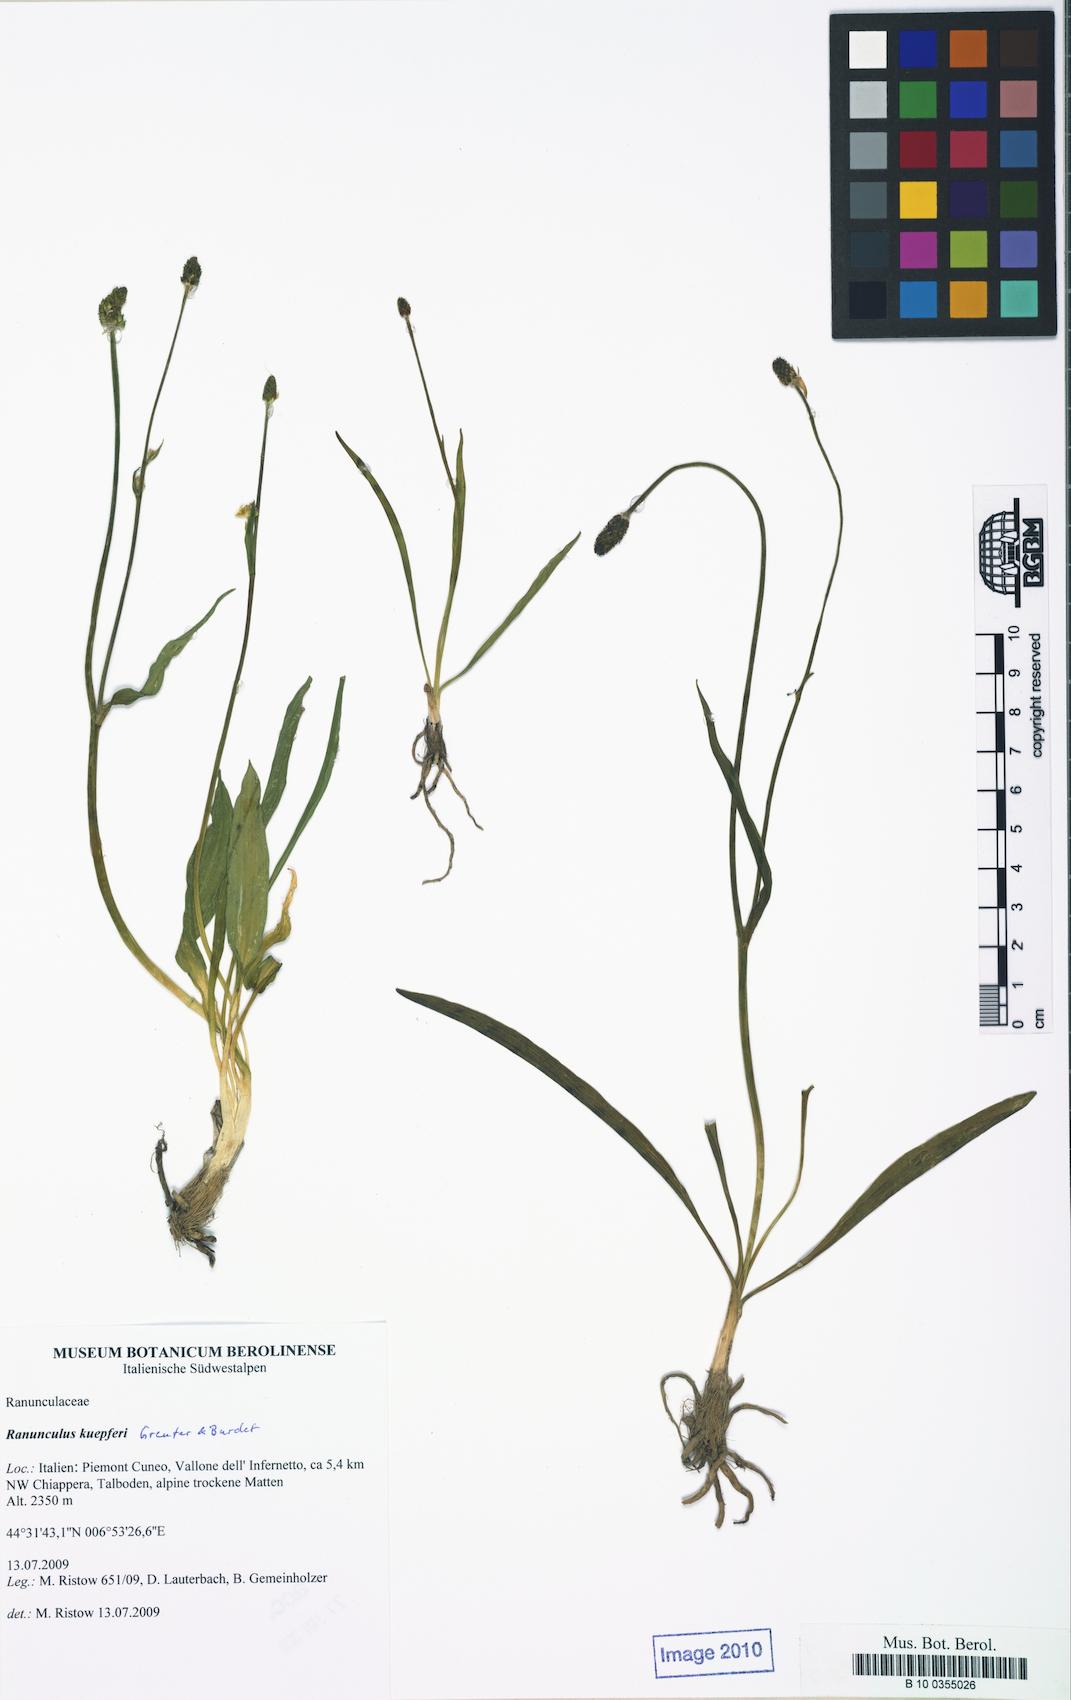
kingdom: Plantae
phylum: Tracheophyta
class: Magnoliopsida
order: Ranunculales
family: Ranunculaceae
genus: Ranunculus
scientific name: Ranunculus kuepferi
